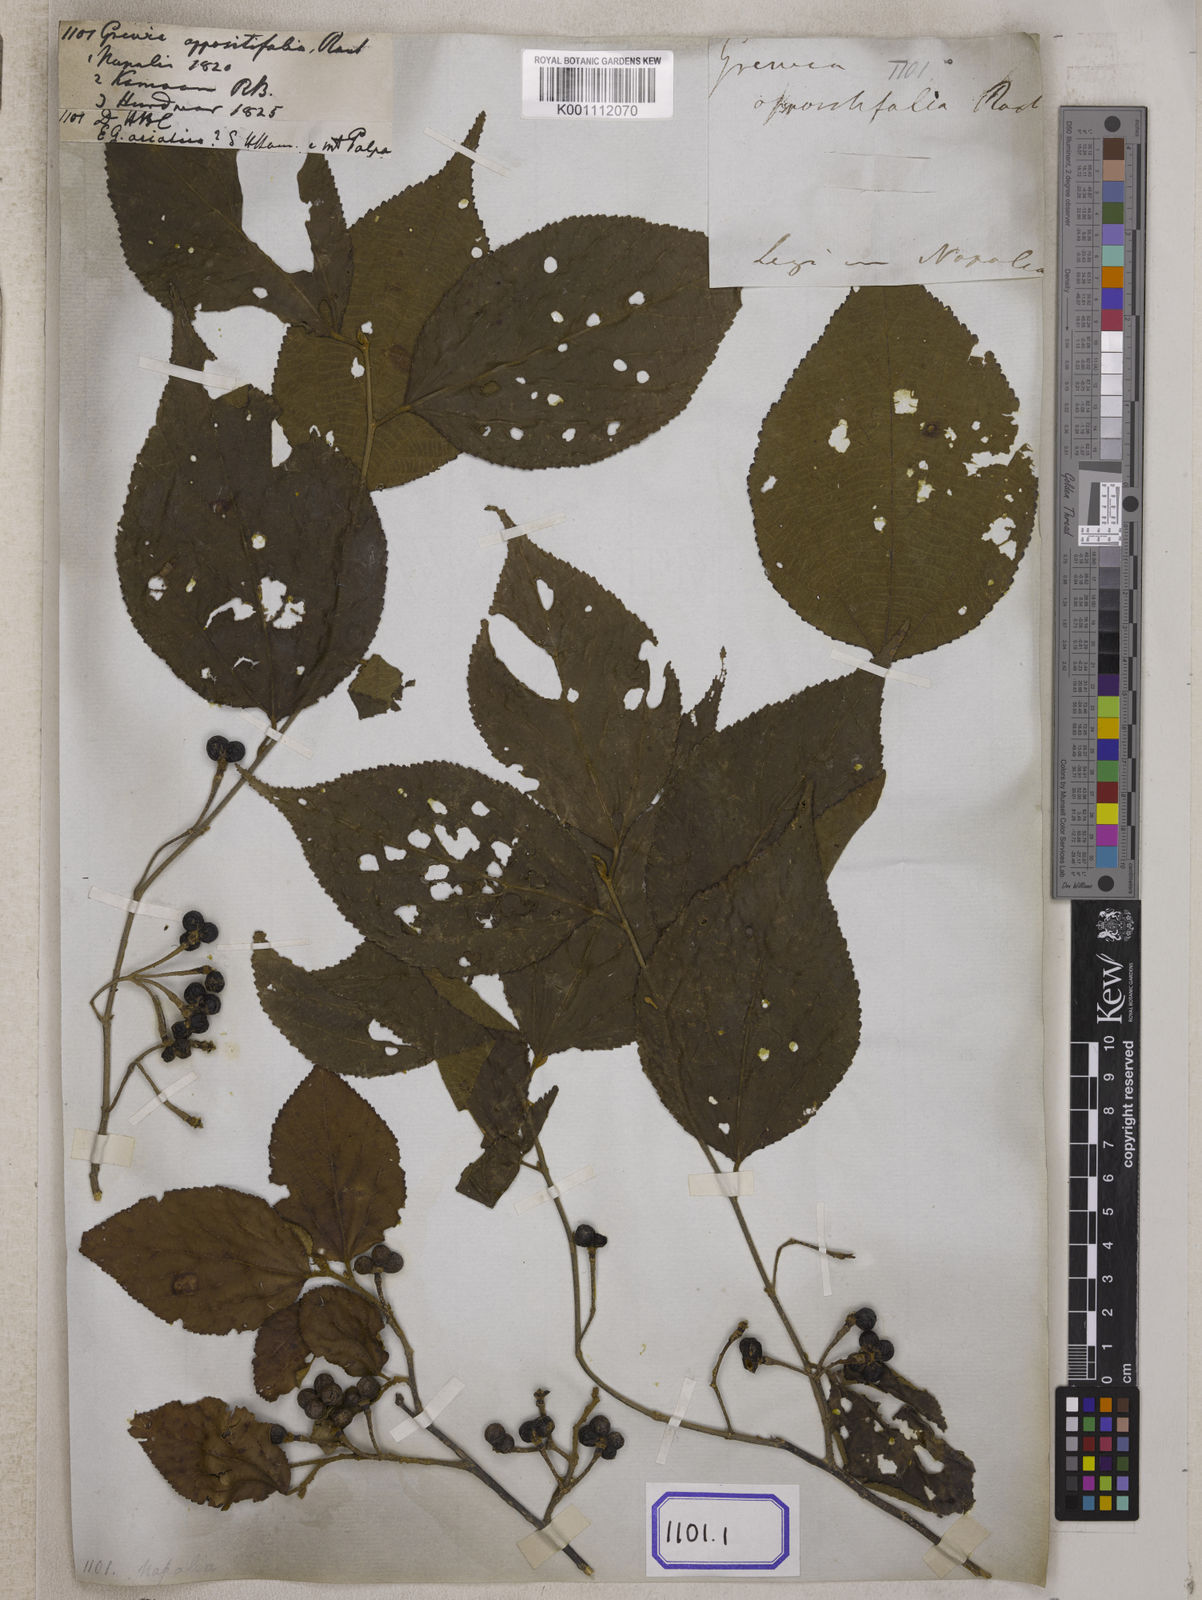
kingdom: Plantae
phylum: Tracheophyta
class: Magnoliopsida
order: Malvales
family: Malvaceae
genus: Grewia
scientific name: Grewia oppositifolia
